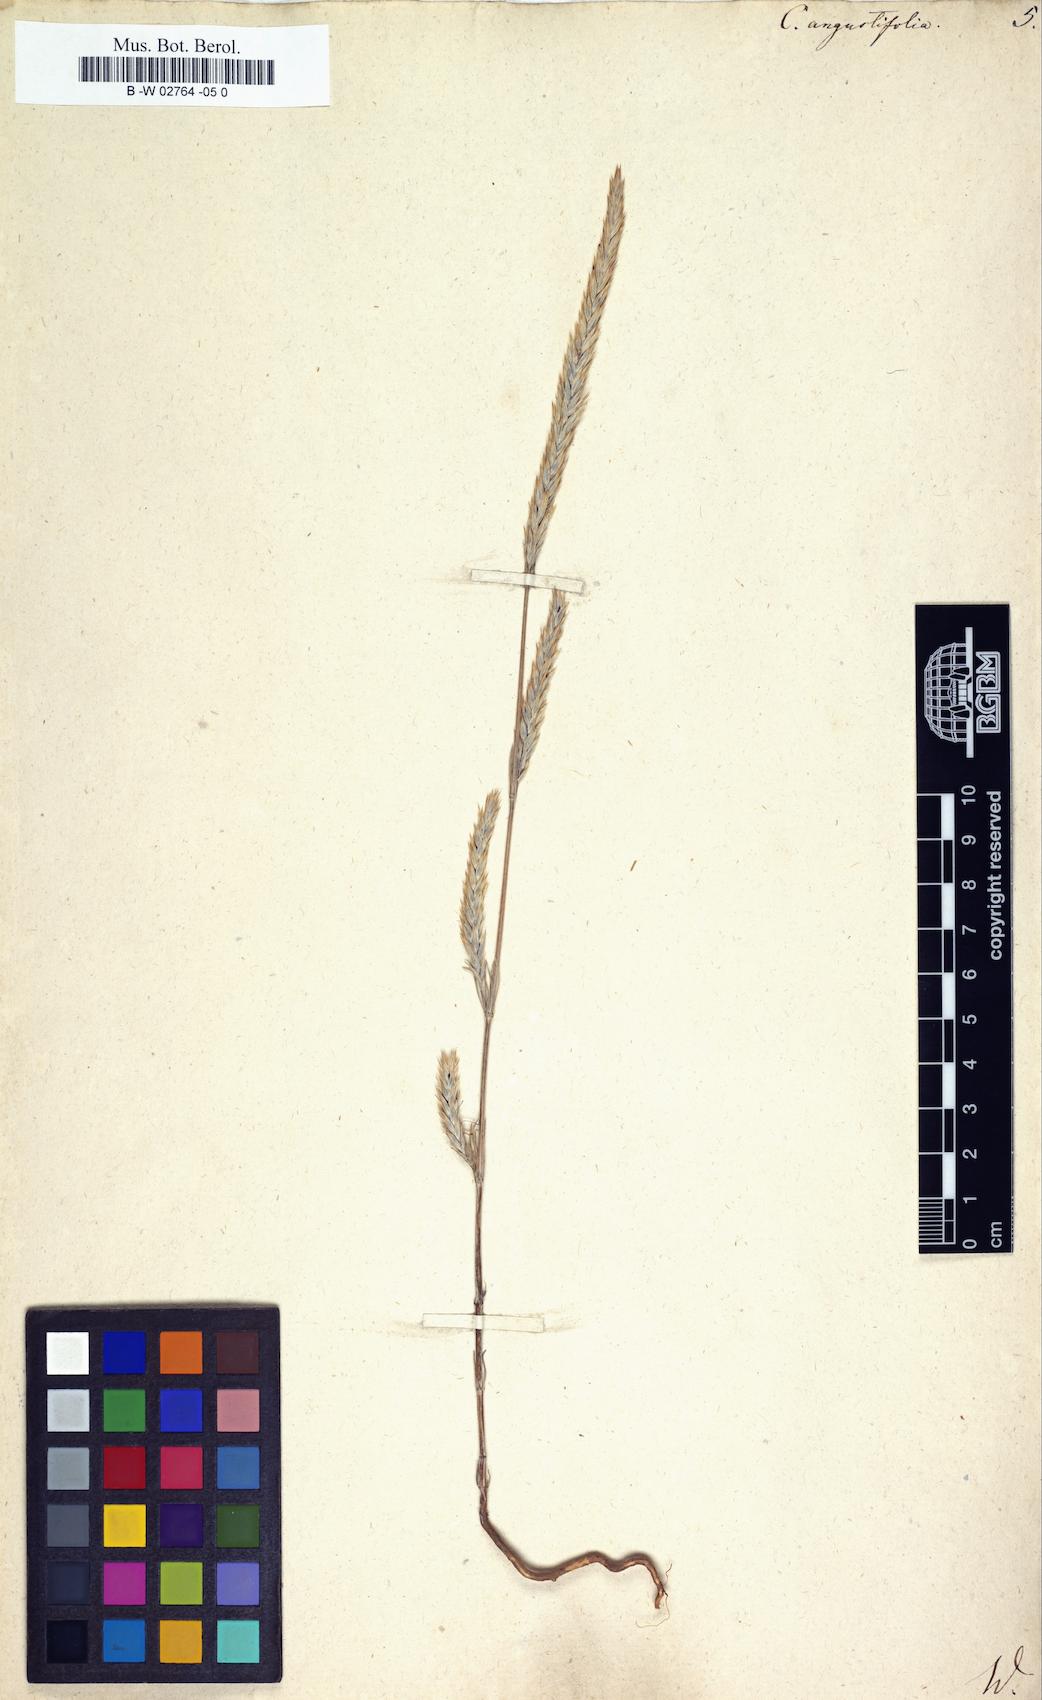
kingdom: Plantae
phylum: Tracheophyta
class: Magnoliopsida
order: Gentianales
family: Rubiaceae
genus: Crucianella
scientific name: Crucianella angustifolia
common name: Narrowleaf crucianella
